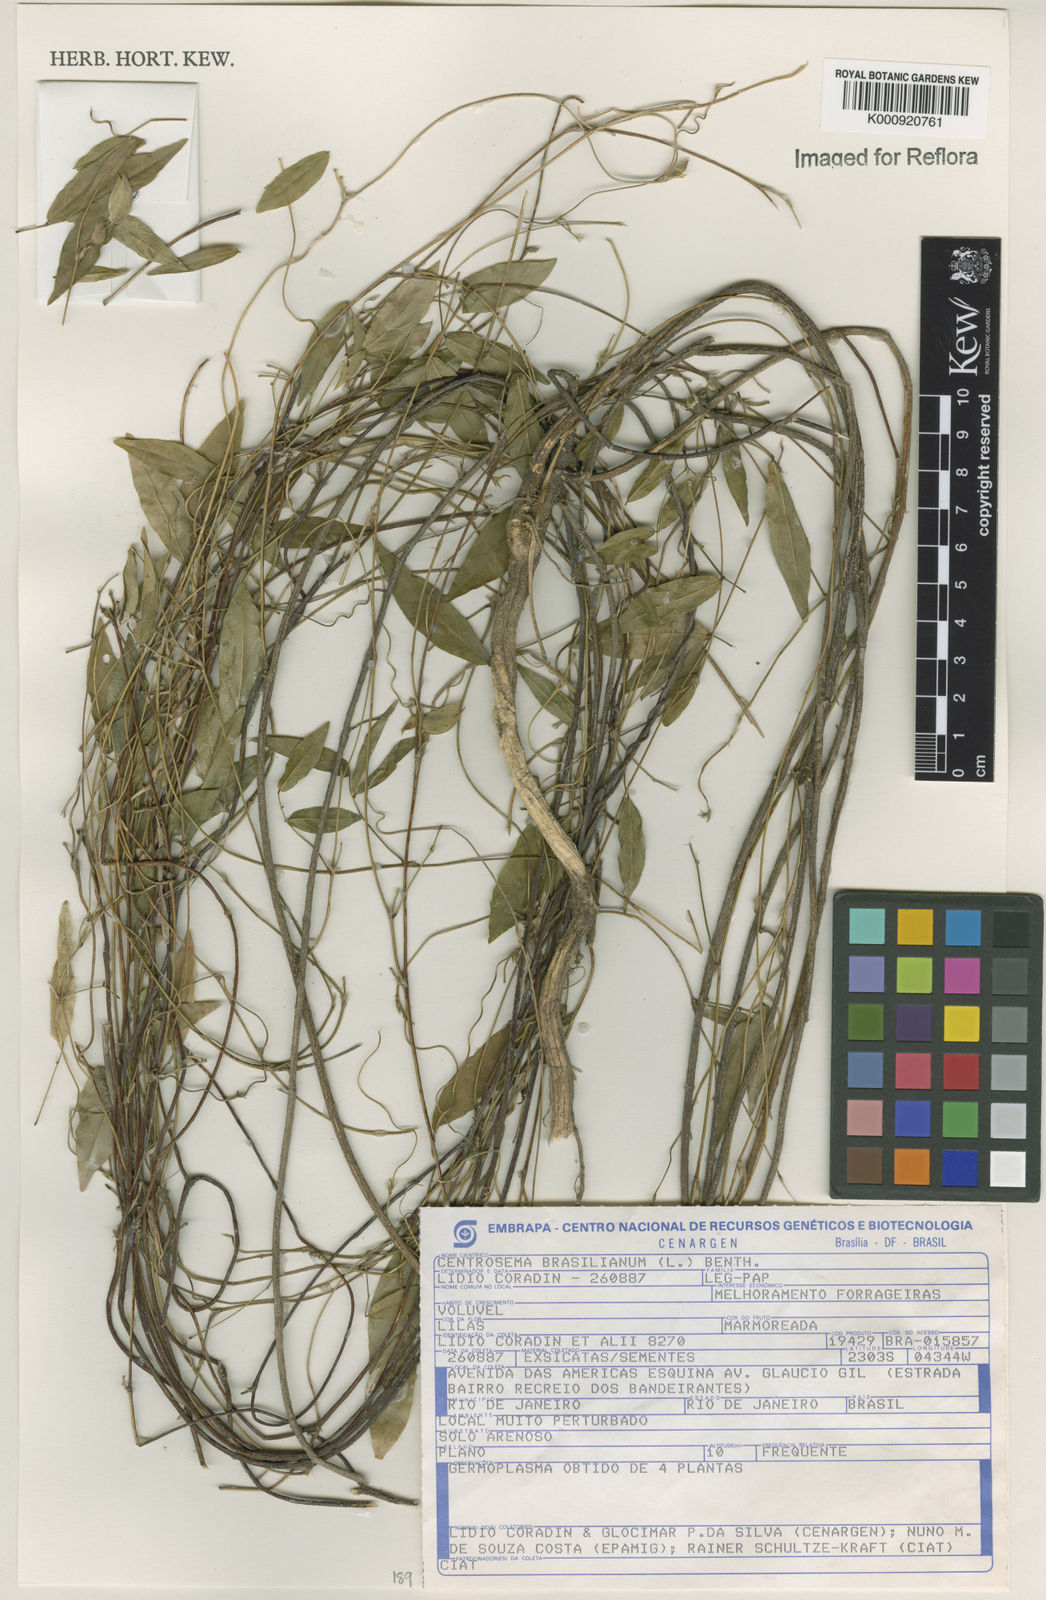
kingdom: Plantae
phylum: Tracheophyta
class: Magnoliopsida
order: Fabales
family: Fabaceae
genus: Centrosema
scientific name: Centrosema brasilianum
